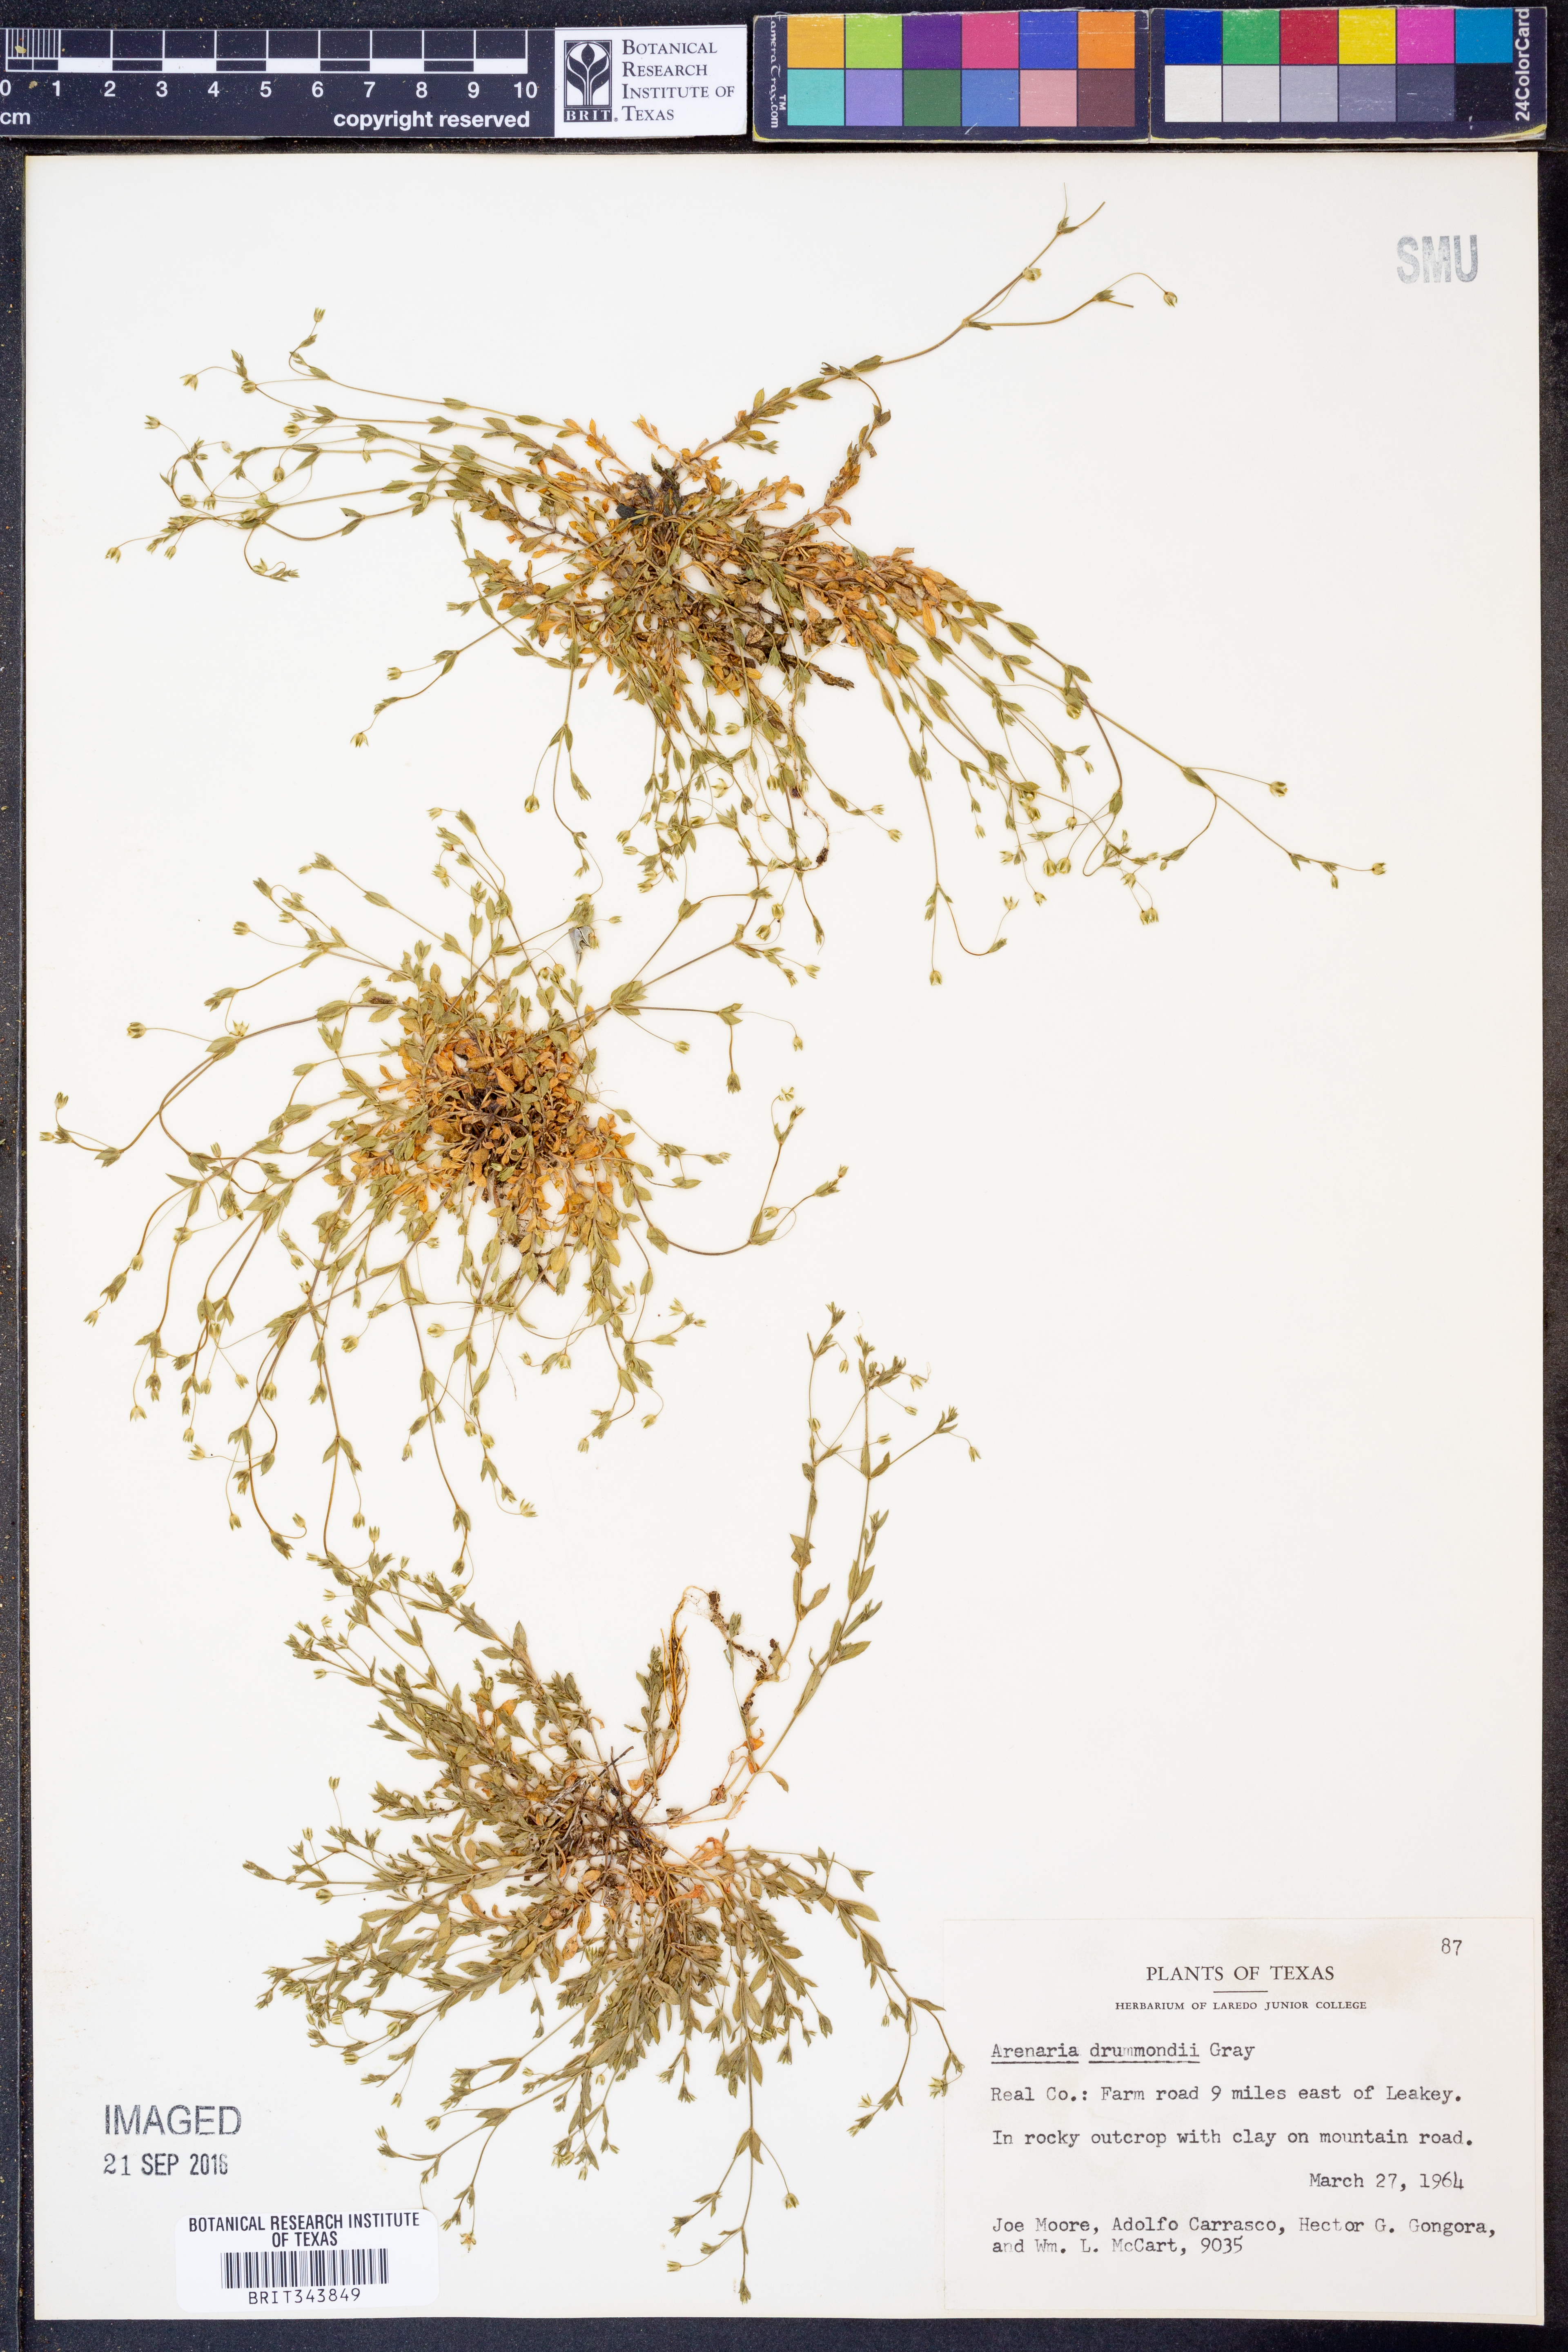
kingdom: Plantae
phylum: Tracheophyta
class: Magnoliopsida
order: Caryophyllales
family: Caryophyllaceae
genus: Geocarpon
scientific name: Geocarpon nuttallii
